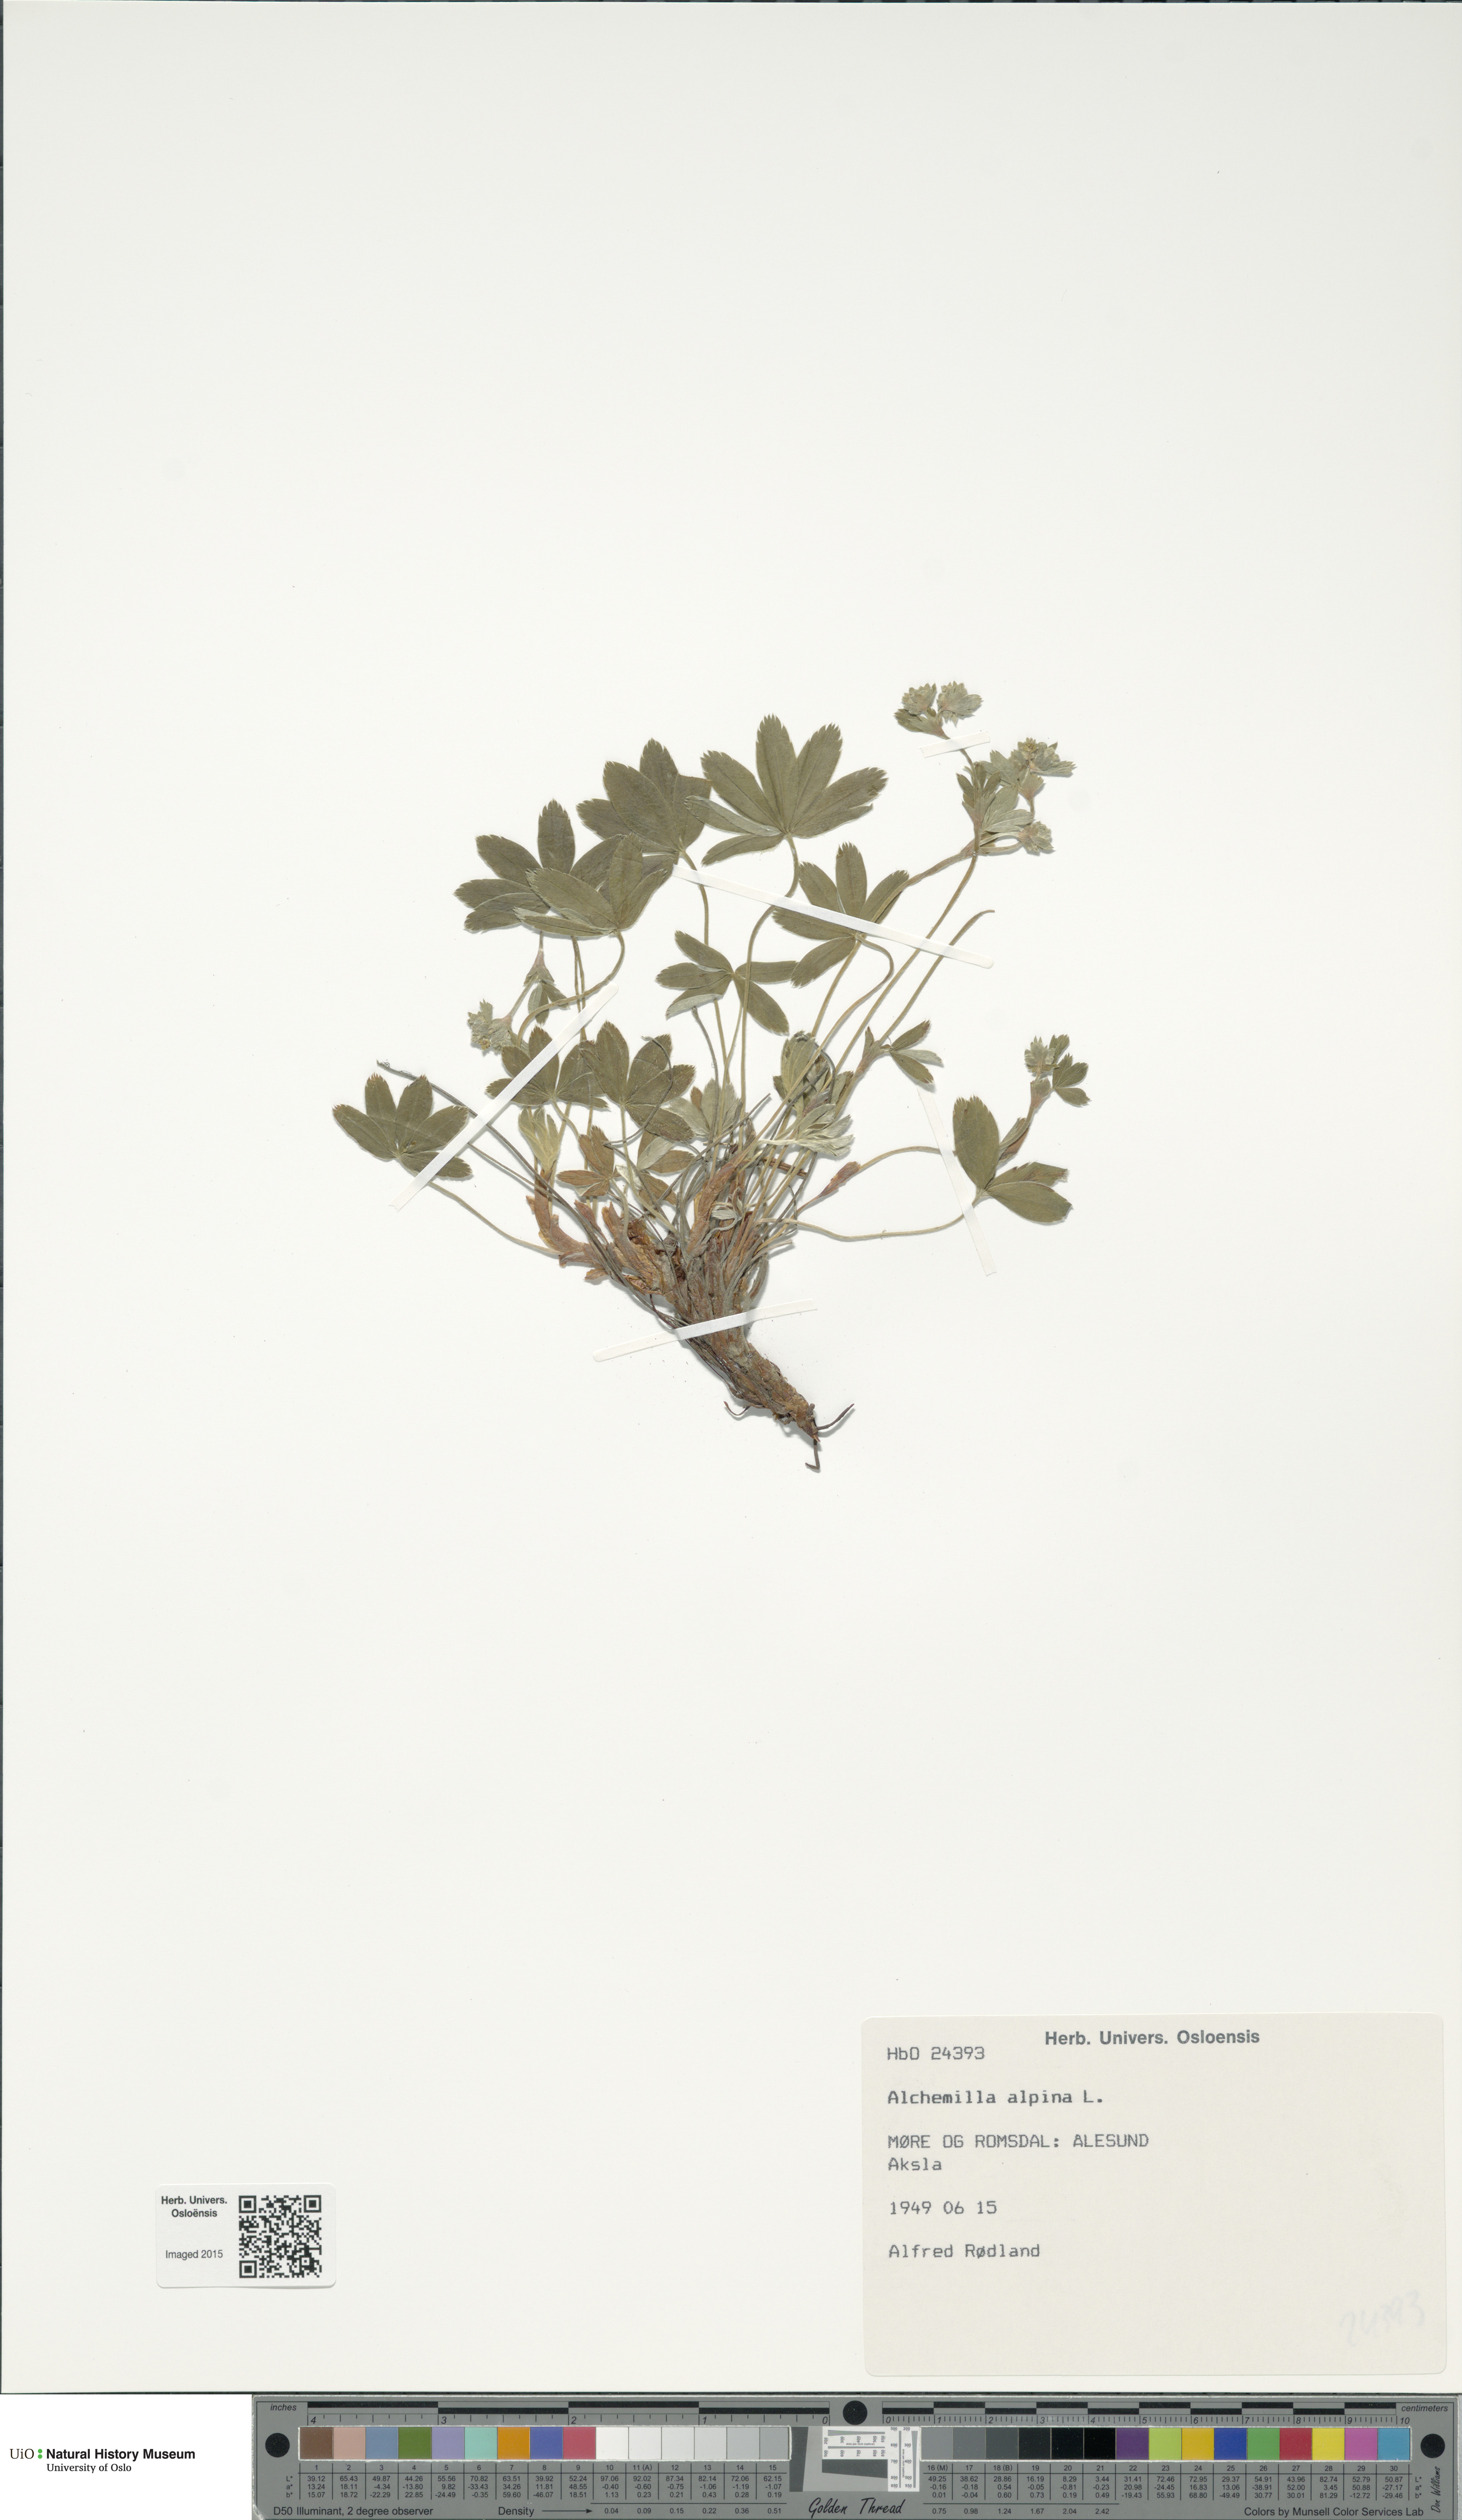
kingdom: Plantae
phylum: Tracheophyta
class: Magnoliopsida
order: Rosales
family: Rosaceae
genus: Alchemilla
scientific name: Alchemilla alpina
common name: Alpine lady's-mantle
